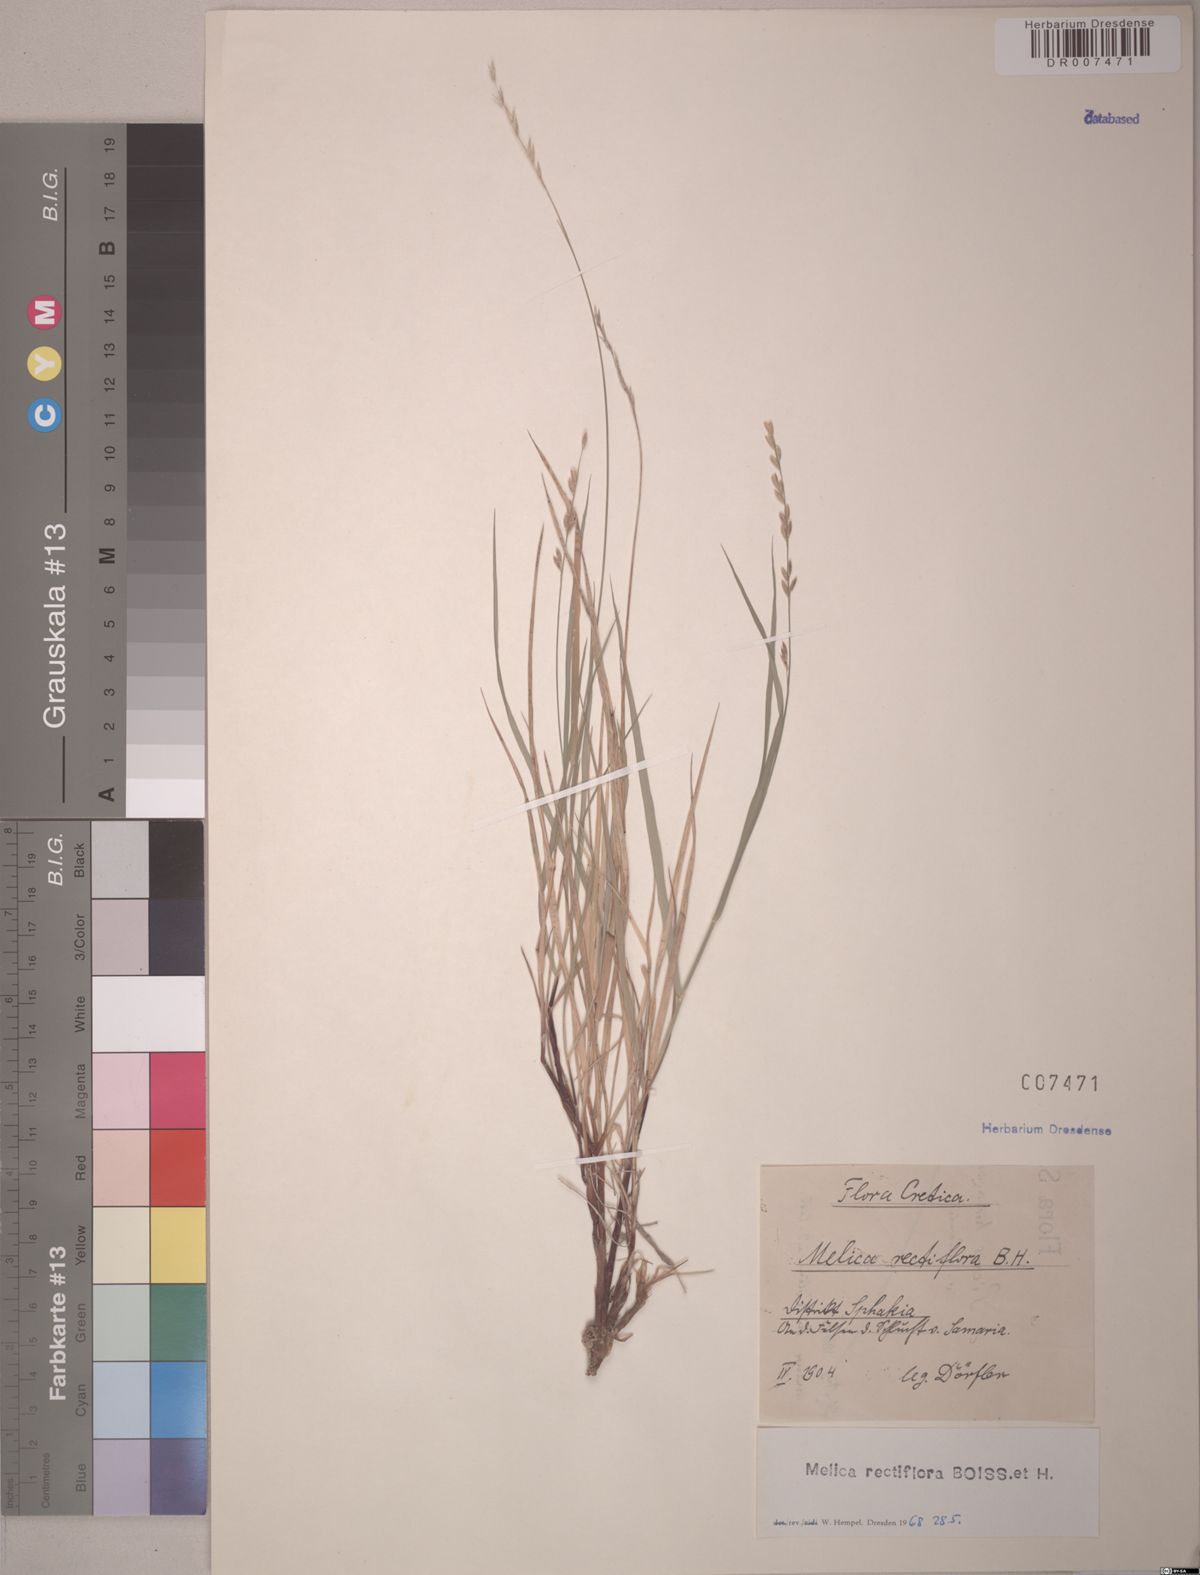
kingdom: Plantae
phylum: Tracheophyta
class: Liliopsida
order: Poales
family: Poaceae
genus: Melica
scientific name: Melica rectiflora
